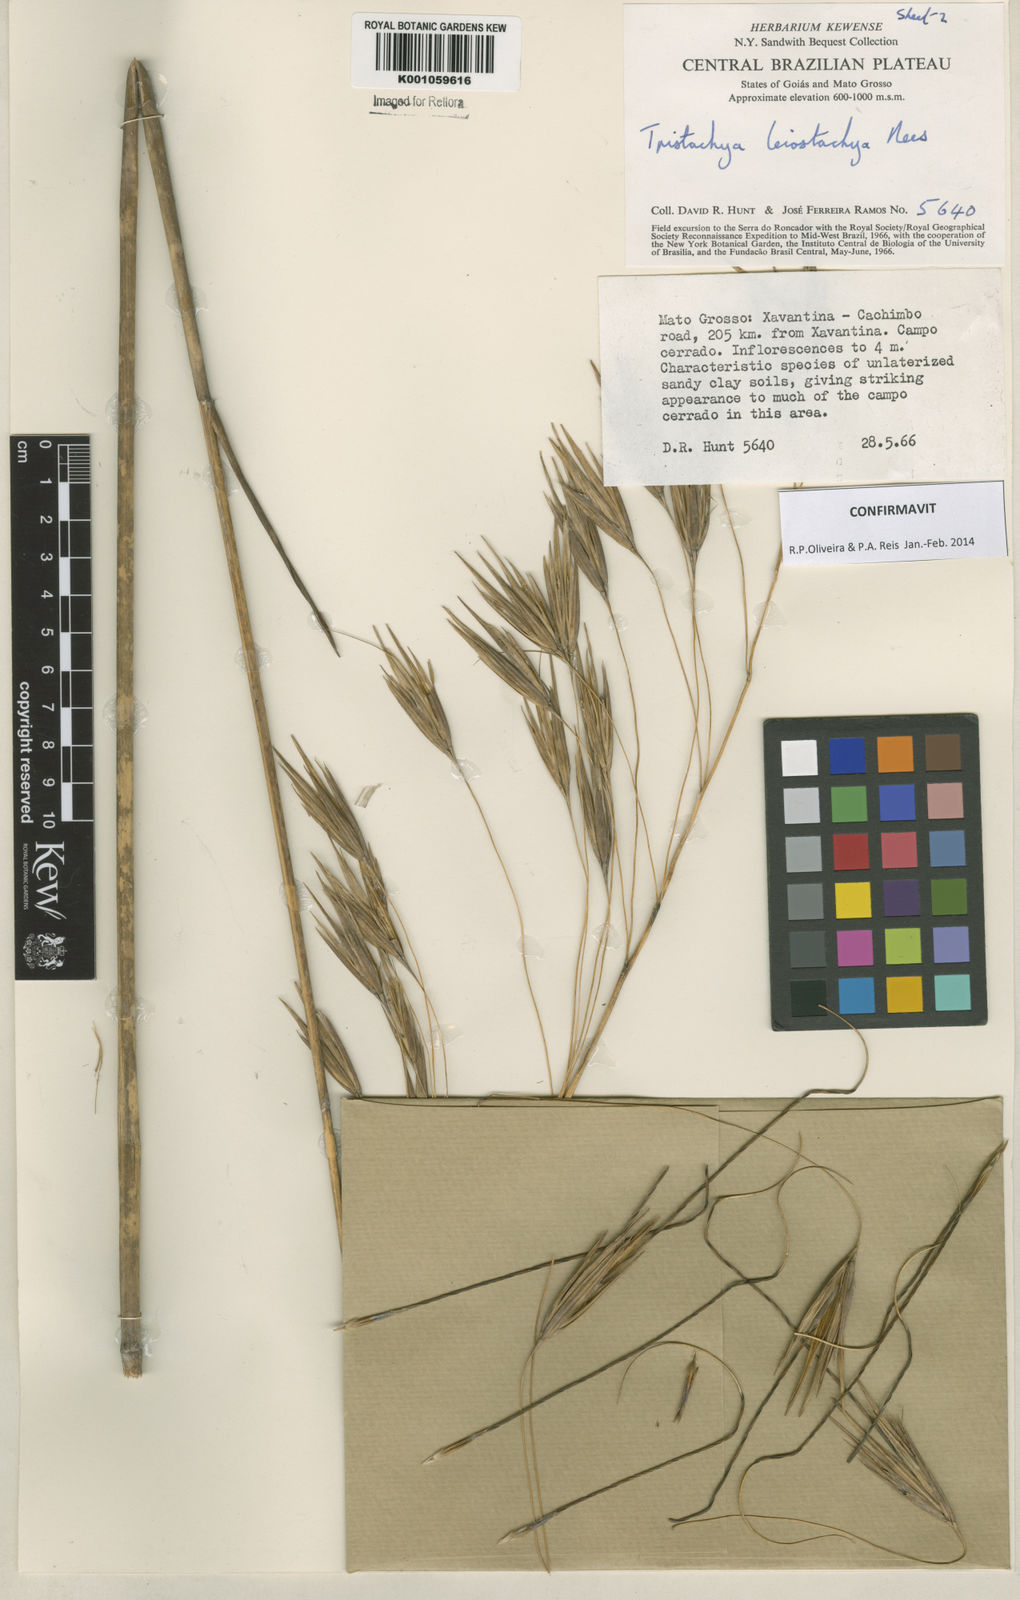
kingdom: Plantae
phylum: Tracheophyta
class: Liliopsida
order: Poales
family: Poaceae
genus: Tristachya
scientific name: Tristachya leiostachya
